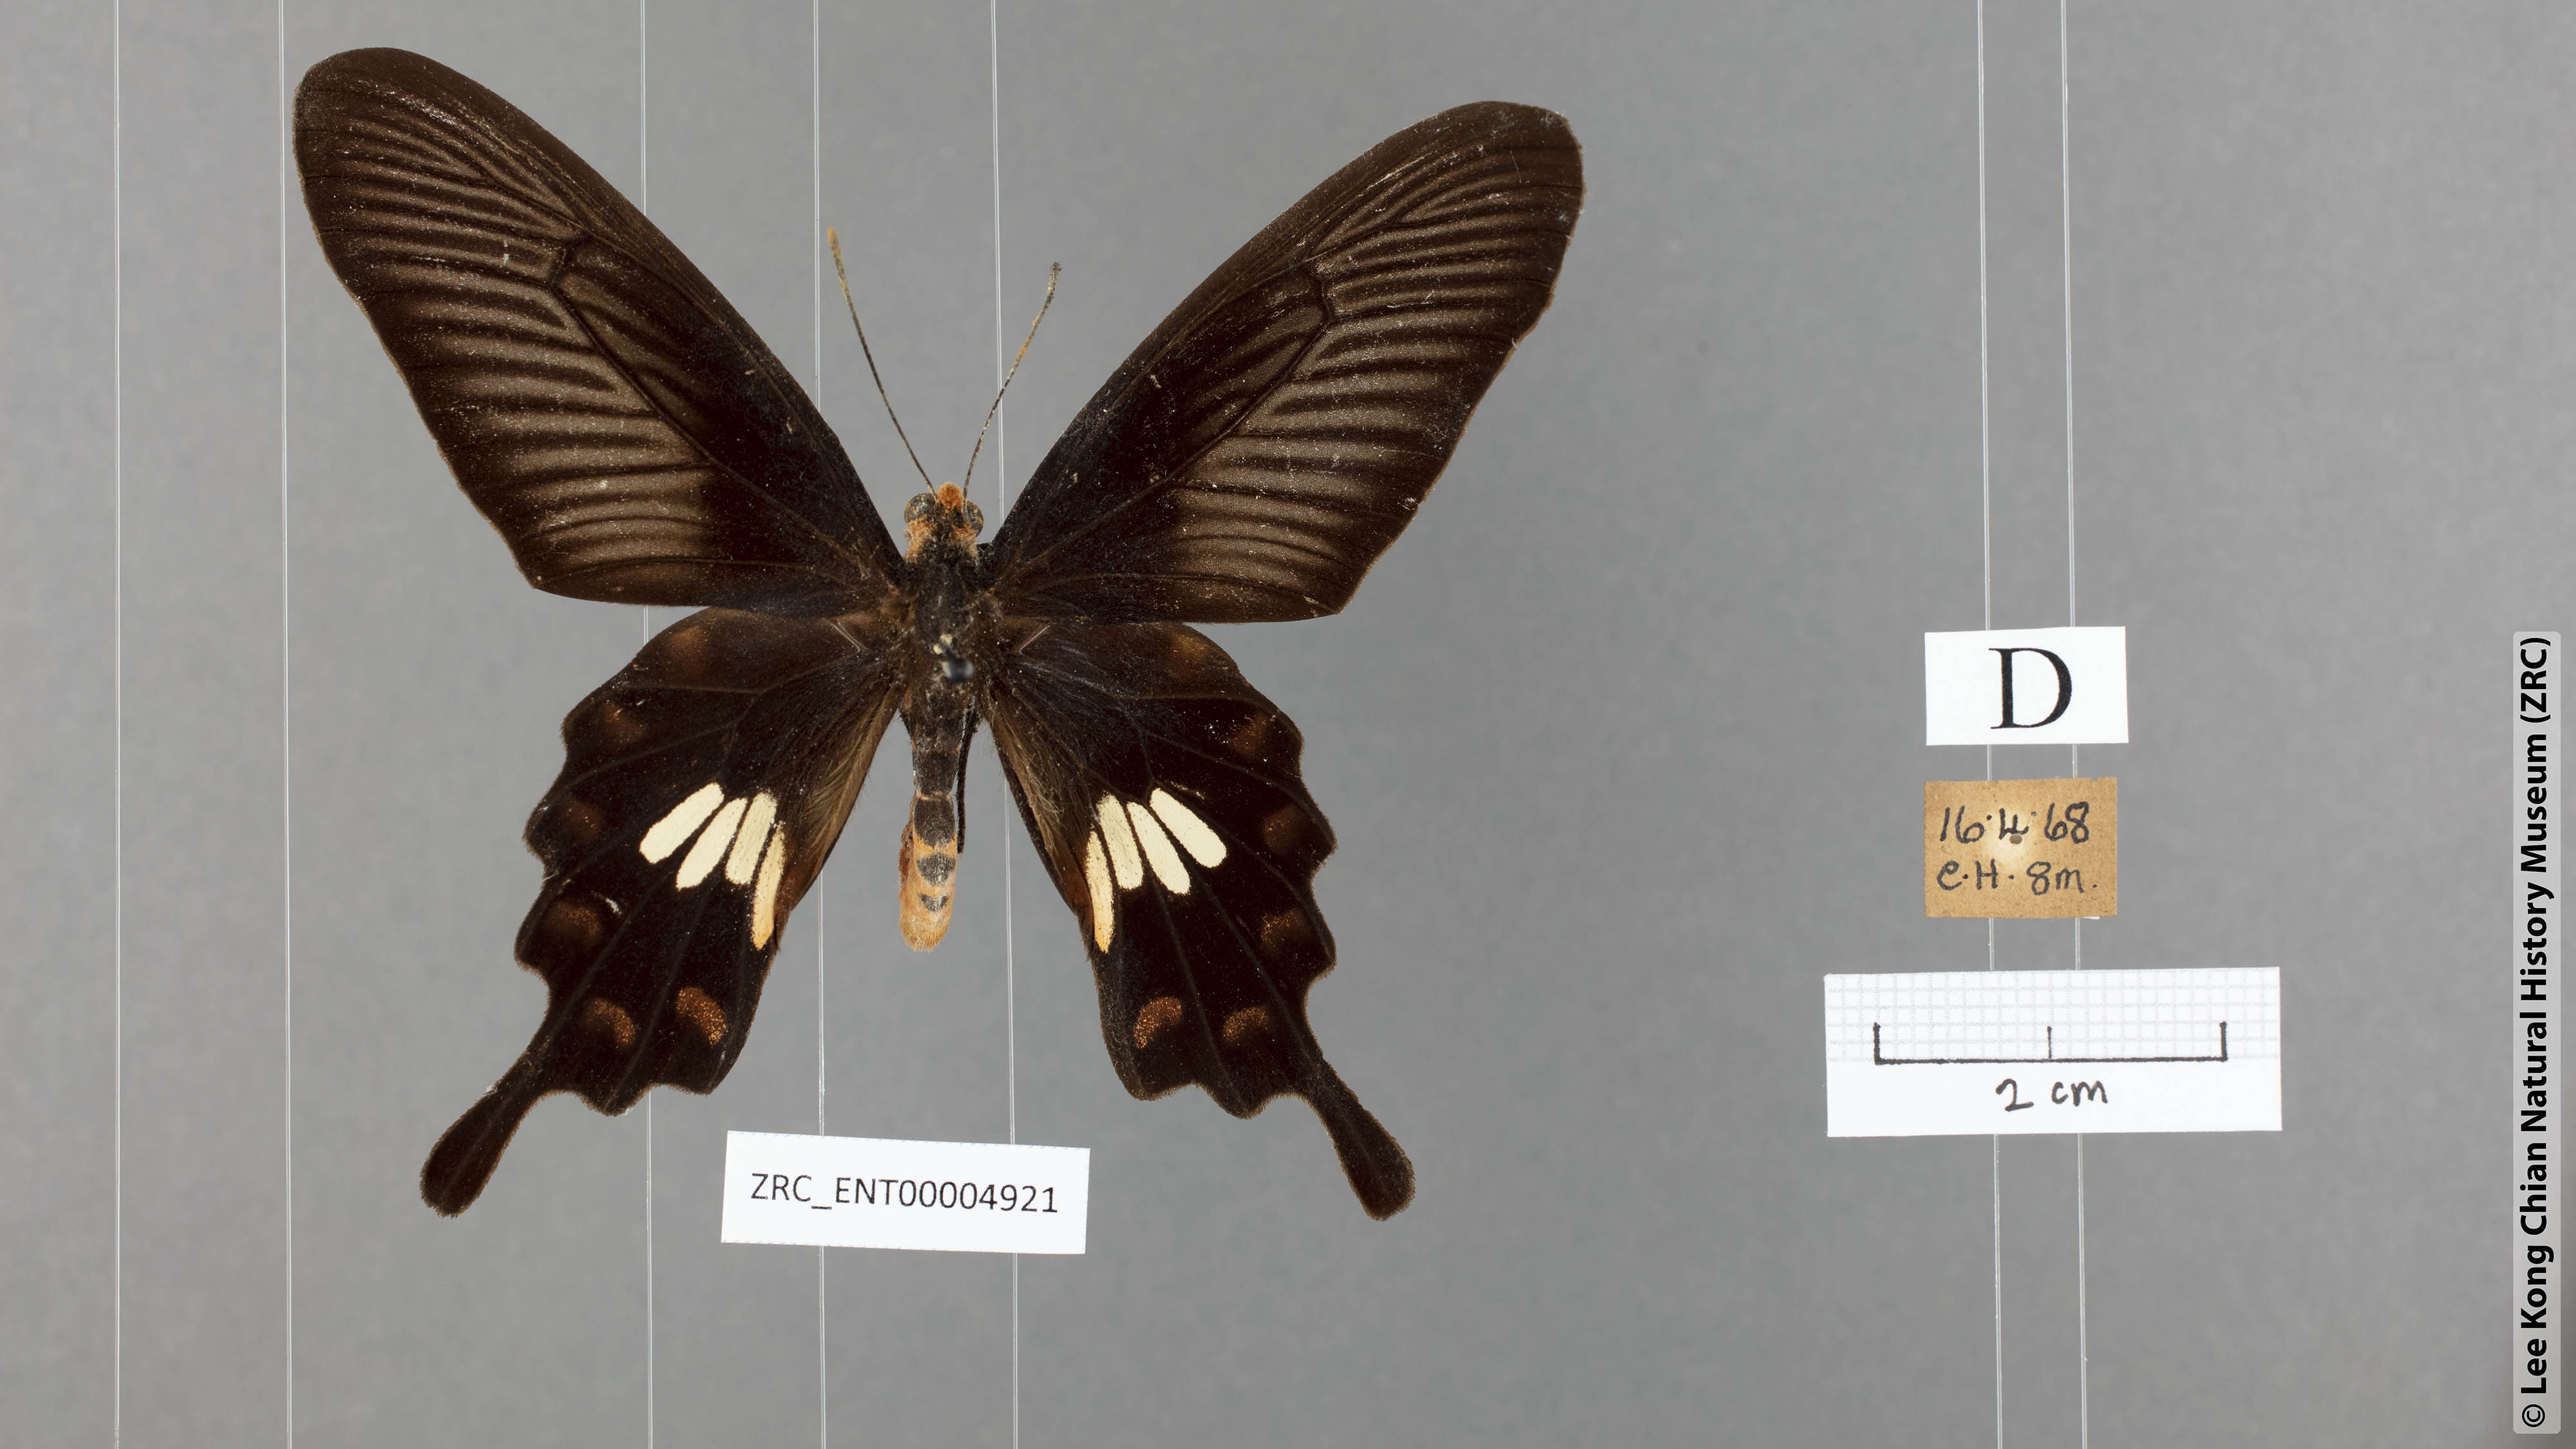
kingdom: Animalia
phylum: Arthropoda
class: Insecta
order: Lepidoptera
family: Papilionidae
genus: Pachliopta
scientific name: Pachliopta aristolochiae
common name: Common rose
